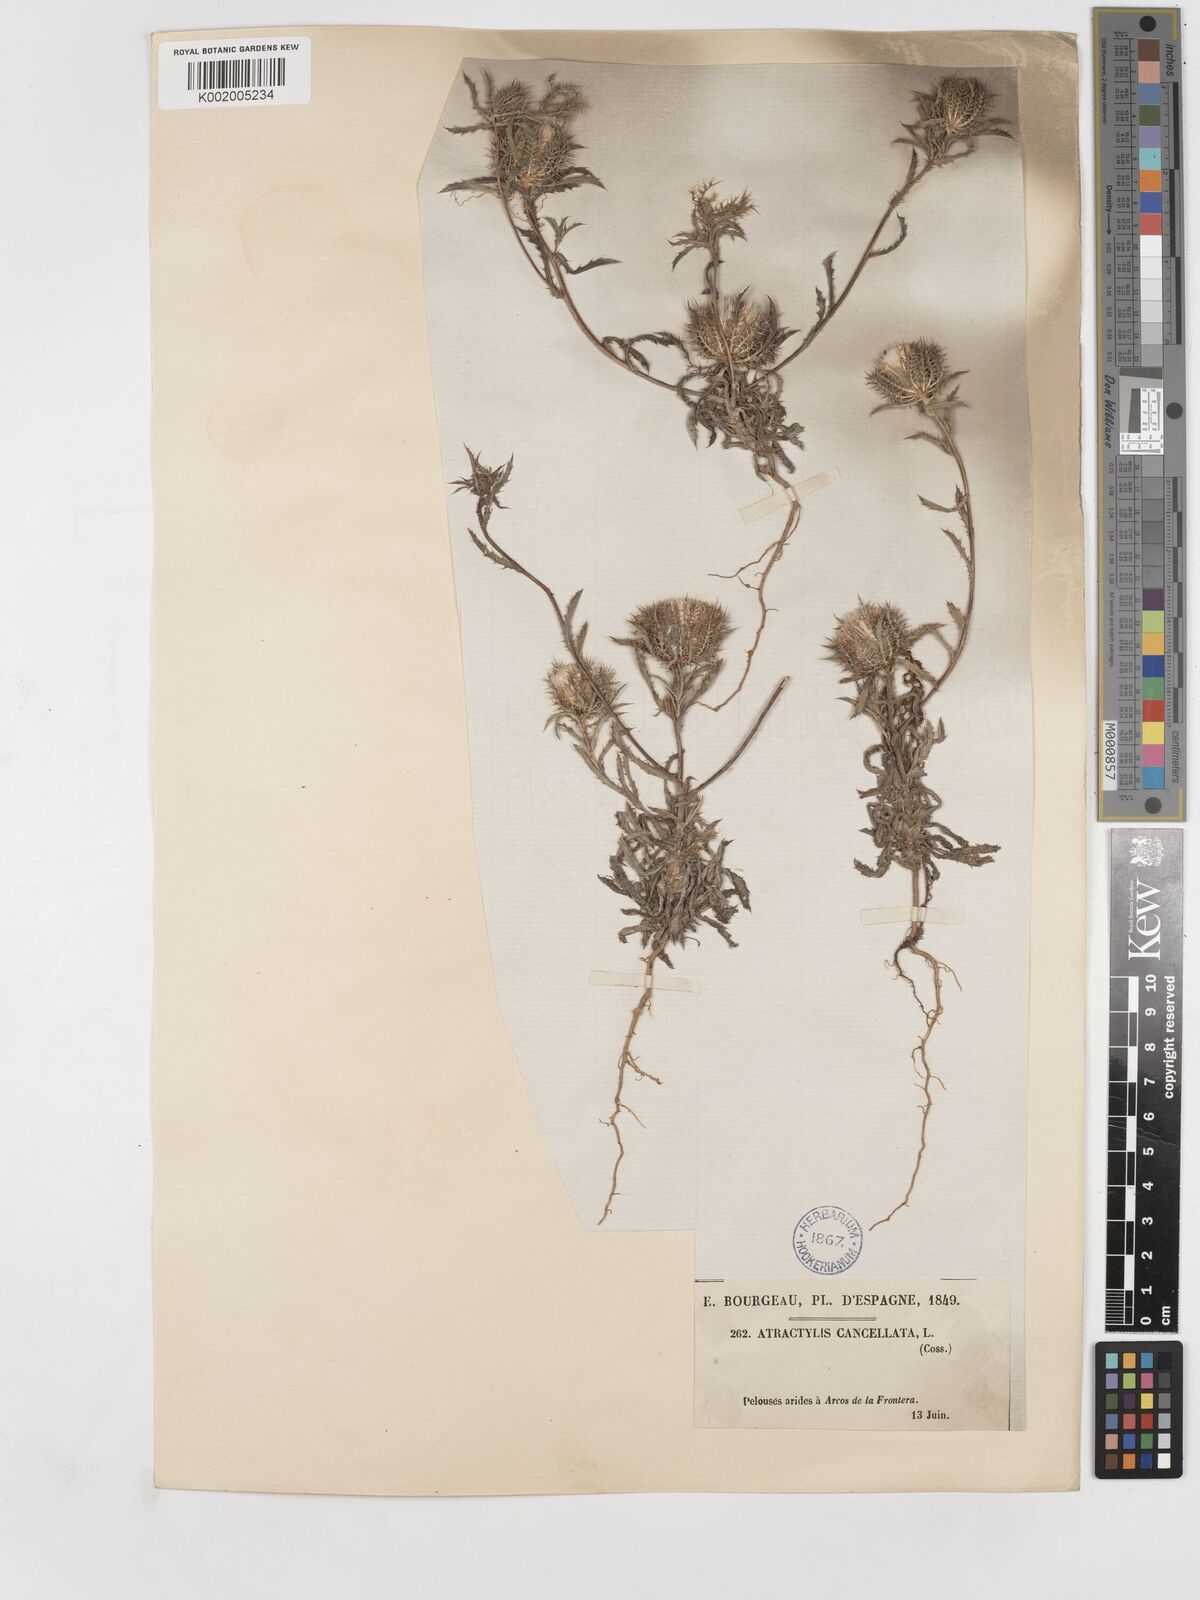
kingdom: Plantae
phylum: Tracheophyta
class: Magnoliopsida
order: Asterales
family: Asteraceae
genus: Atractylis
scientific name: Atractylis cancellata
